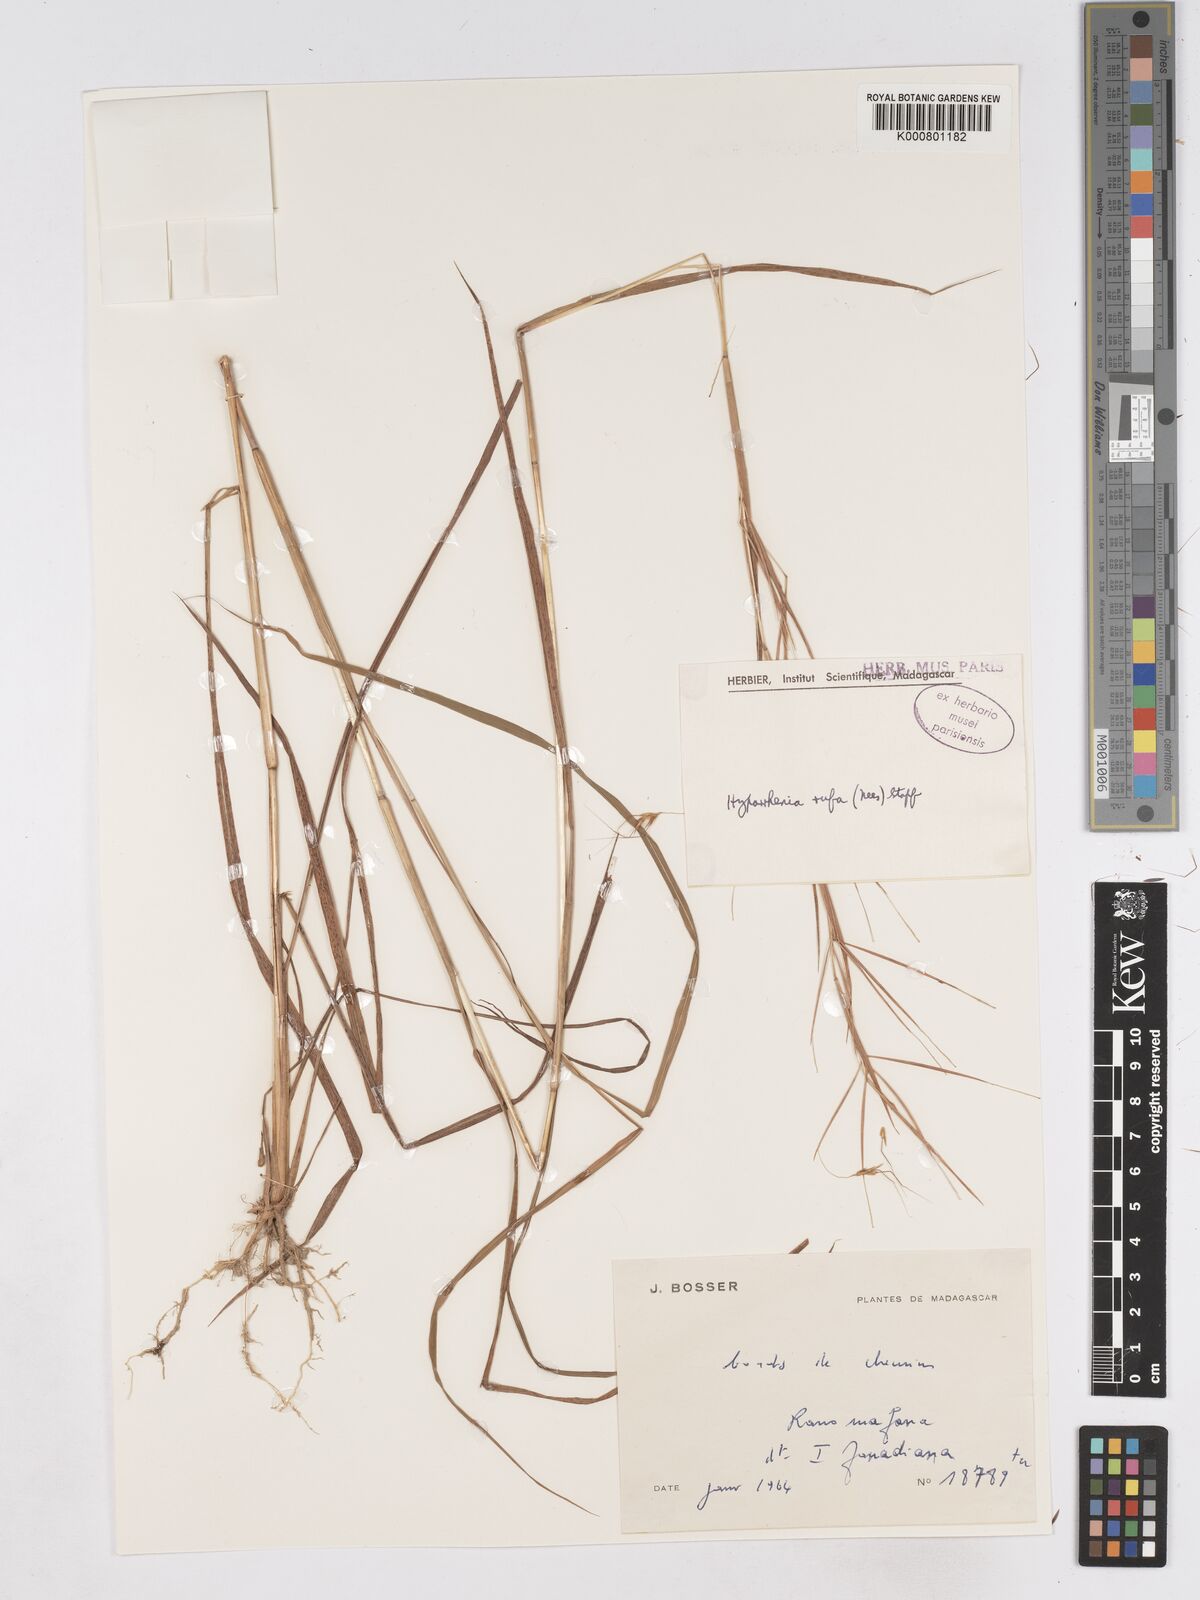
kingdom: Plantae
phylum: Tracheophyta
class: Liliopsida
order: Poales
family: Poaceae
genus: Hyparrhenia
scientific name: Hyparrhenia rufa
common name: Jaraguagrass
